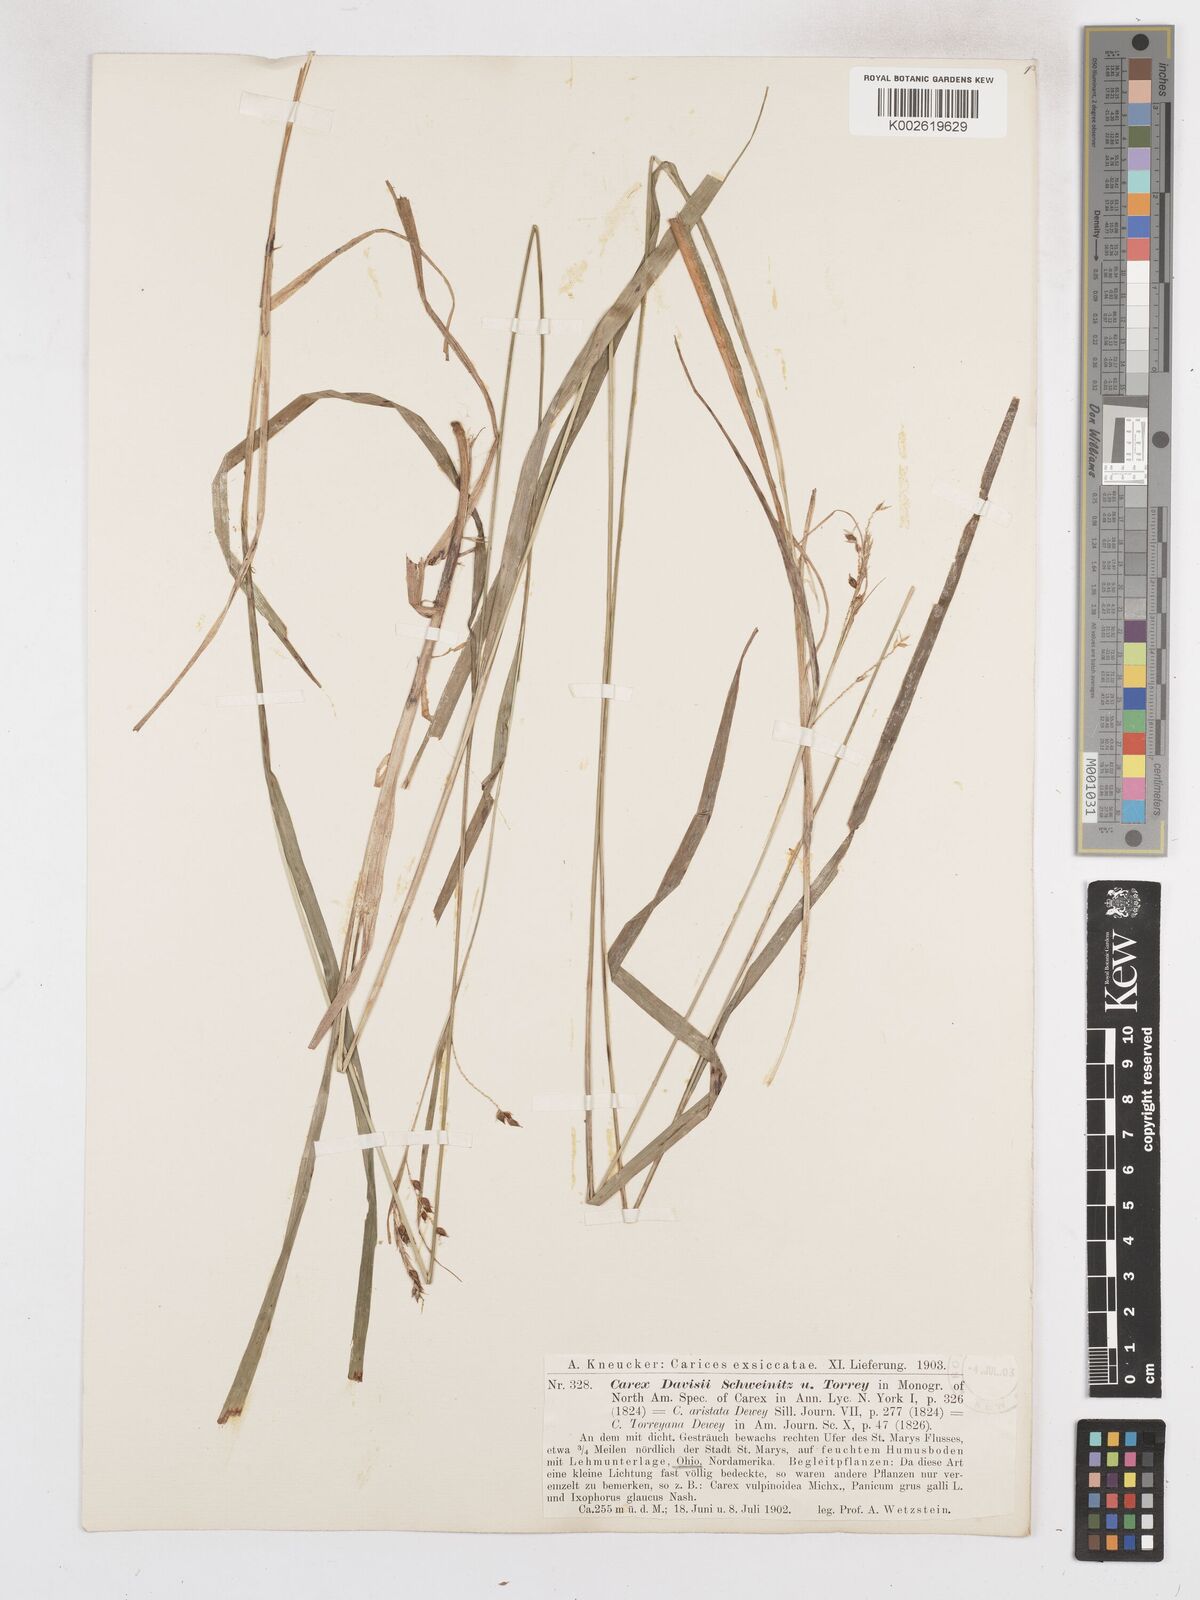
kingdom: Plantae
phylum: Tracheophyta
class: Liliopsida
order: Poales
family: Cyperaceae
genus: Carex
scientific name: Carex davisii
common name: Davis' sedge
